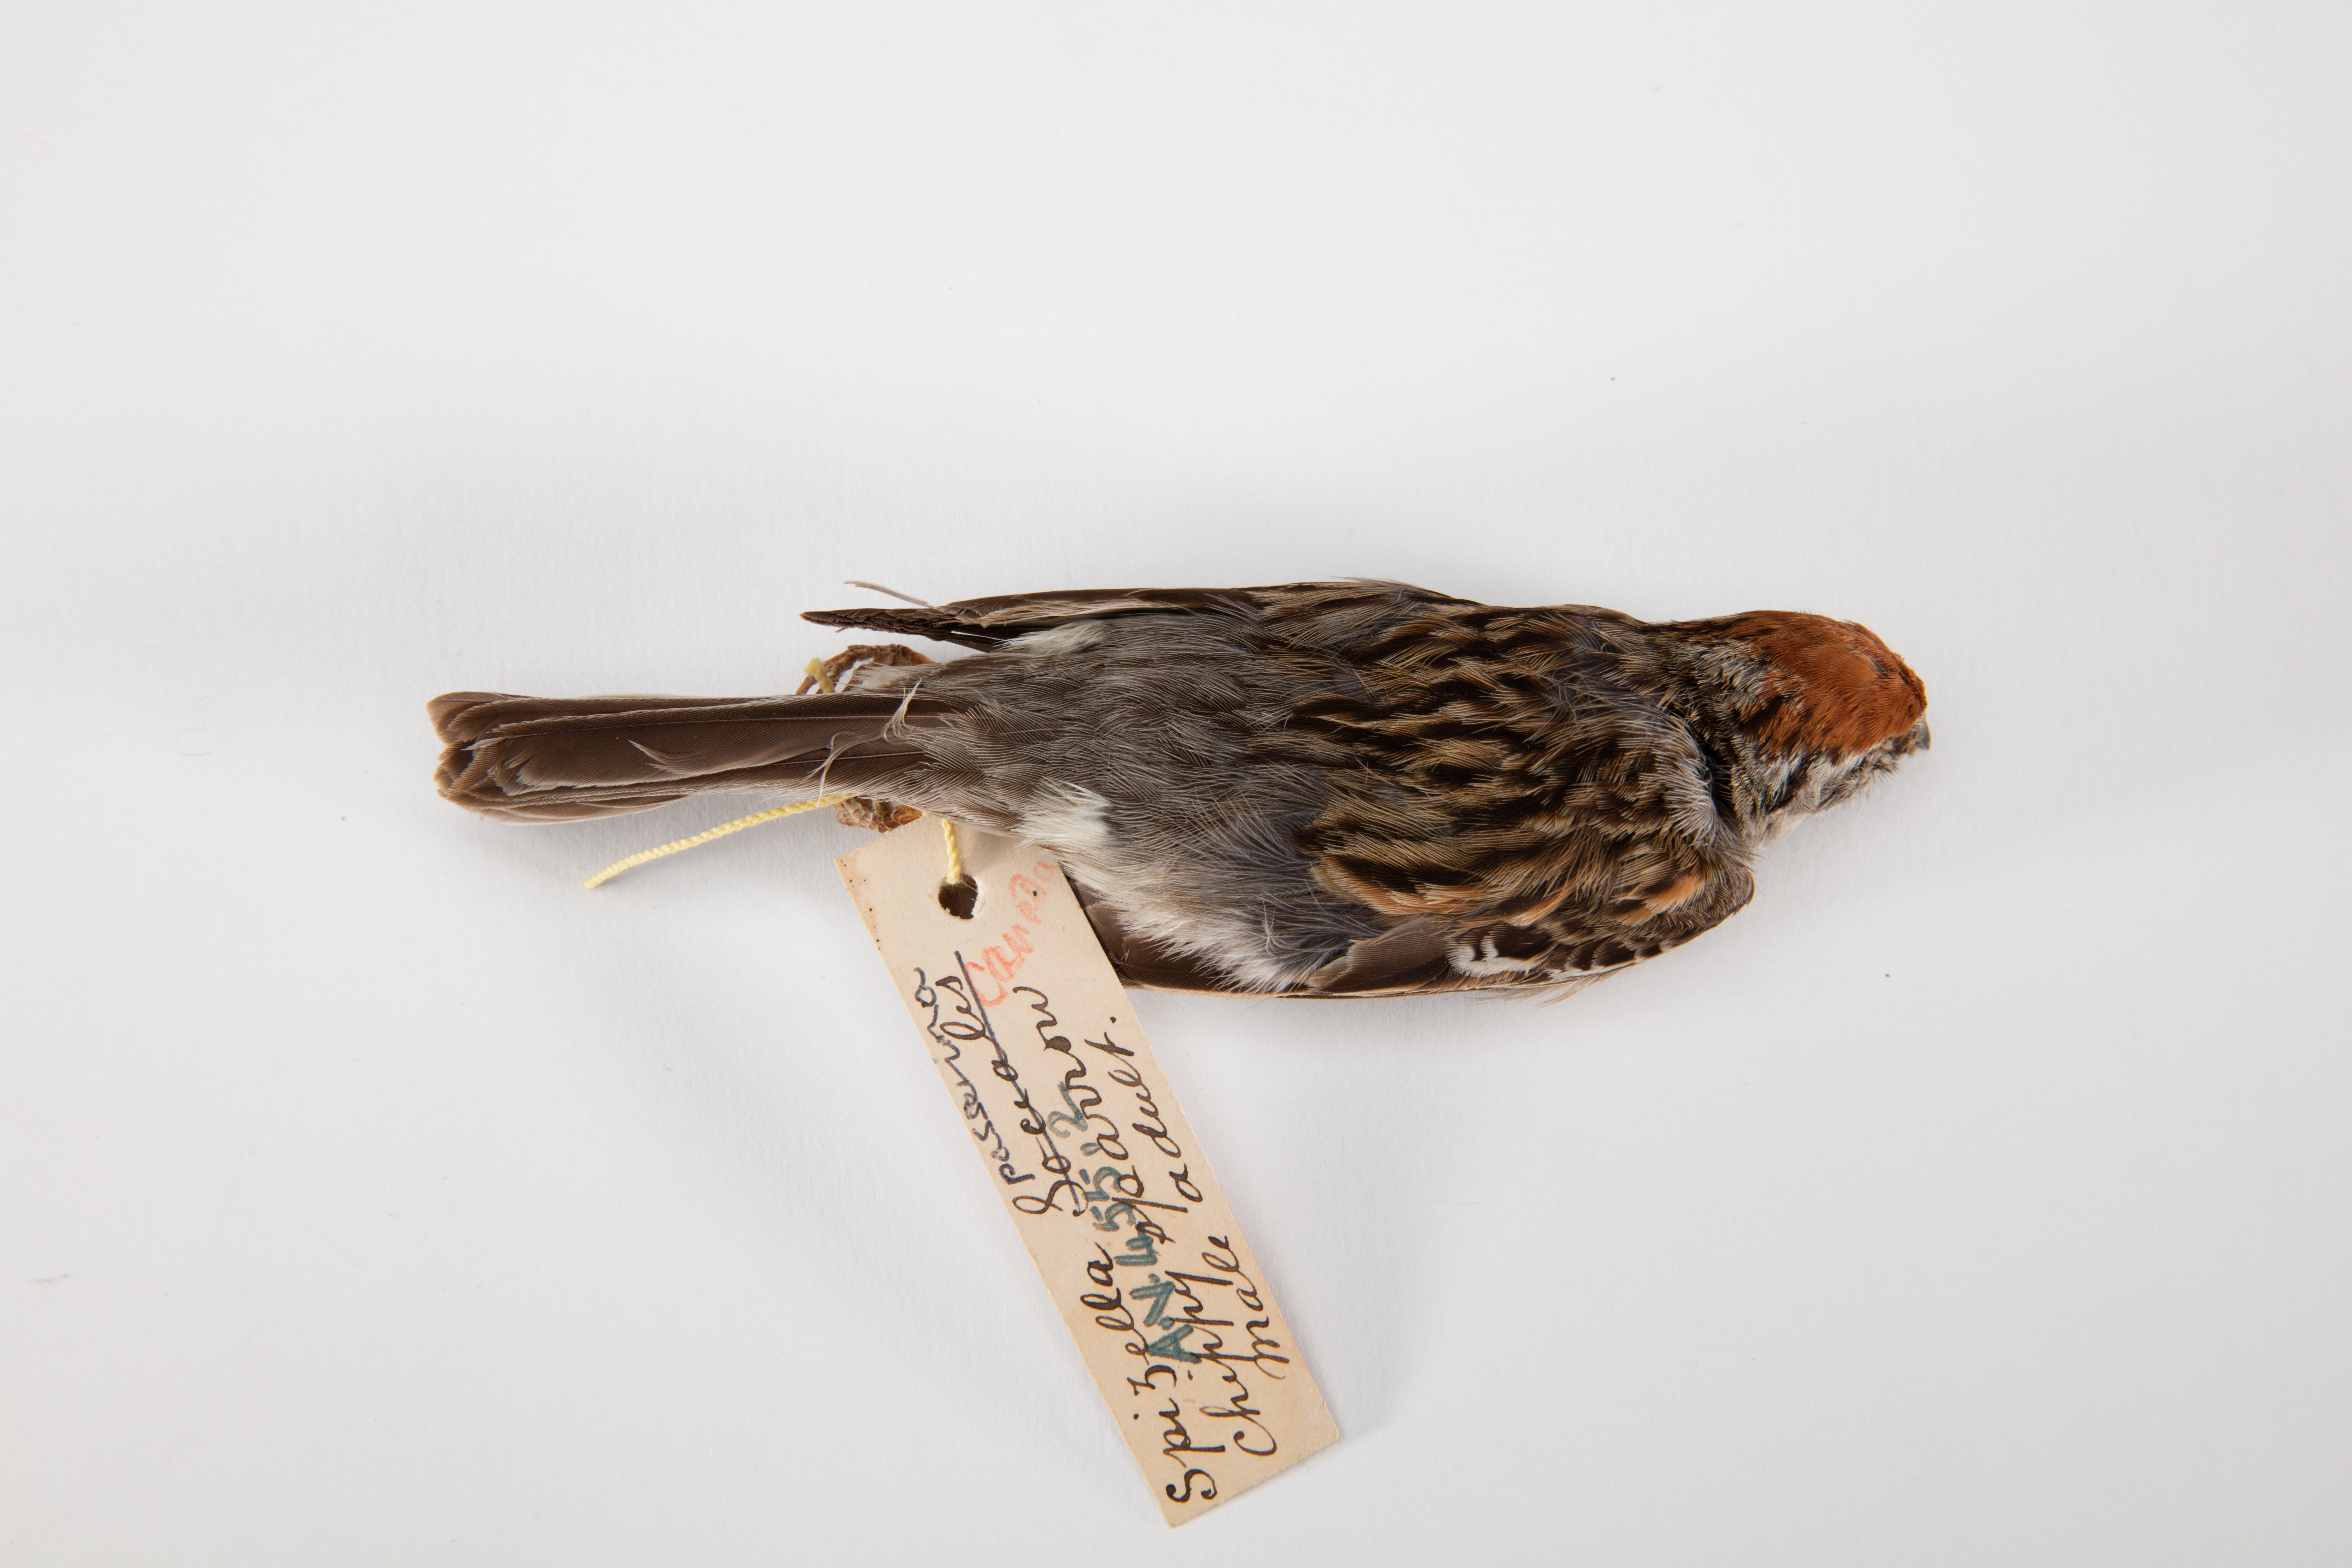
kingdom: Animalia
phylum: Chordata
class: Aves
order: Passeriformes
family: Passerellidae
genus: Spizella
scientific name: Spizella passerina
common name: Chipping sparrow
